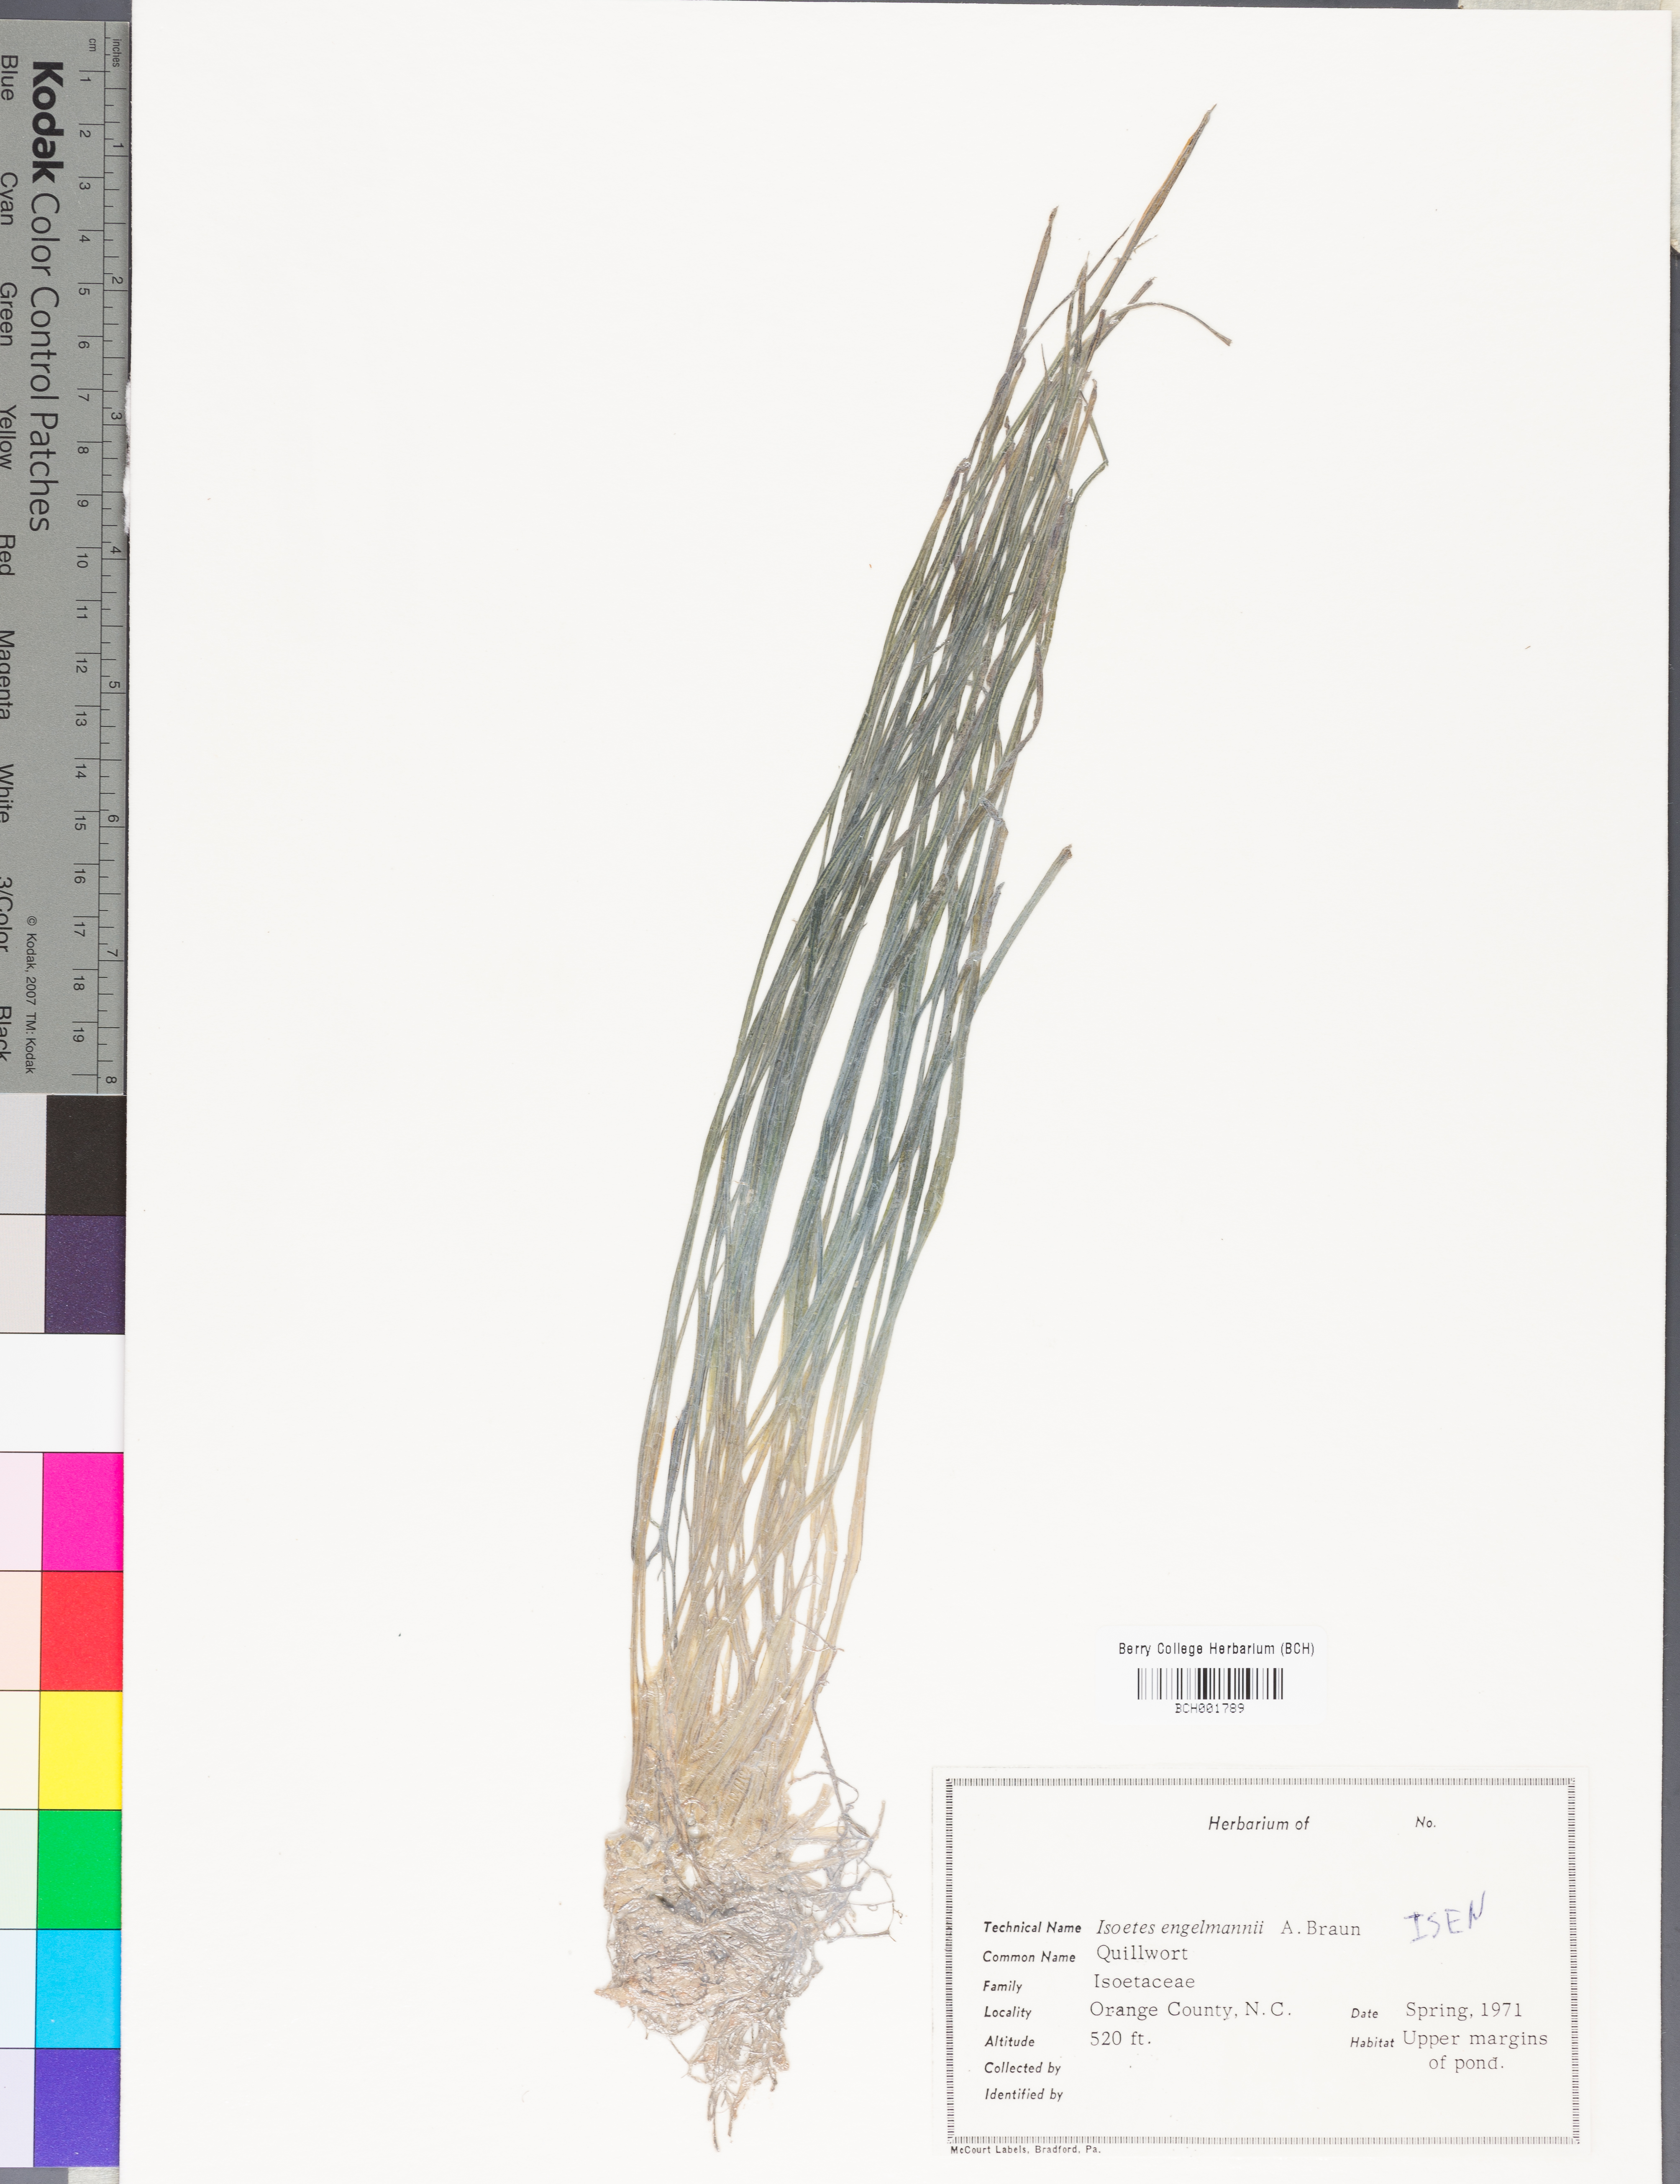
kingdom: Plantae
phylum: Tracheophyta
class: Lycopodiopsida
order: Isoetales
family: Isoetaceae
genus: Isoetes
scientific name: Isoetes engelmannii
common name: Engelmann's quillwort
